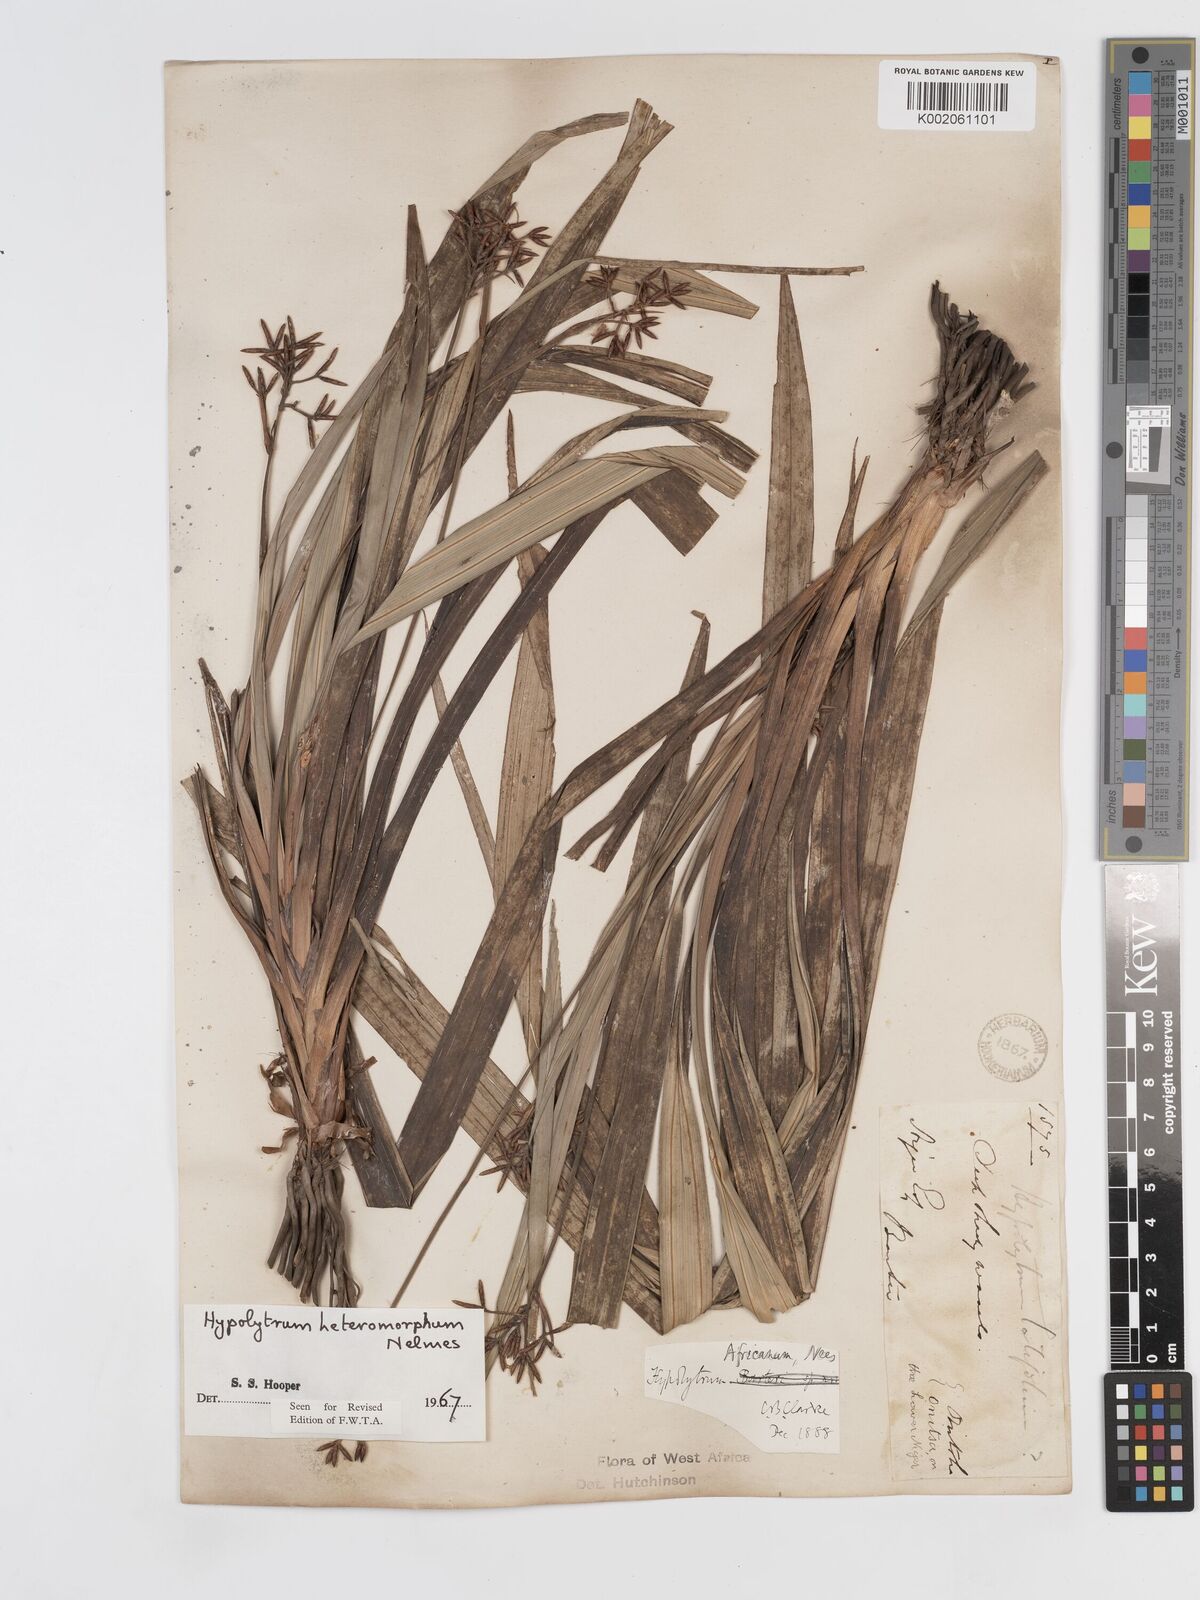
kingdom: Plantae
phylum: Tracheophyta
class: Liliopsida
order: Poales
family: Cyperaceae
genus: Hypolytrum
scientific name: Hypolytrum heteromorphum
